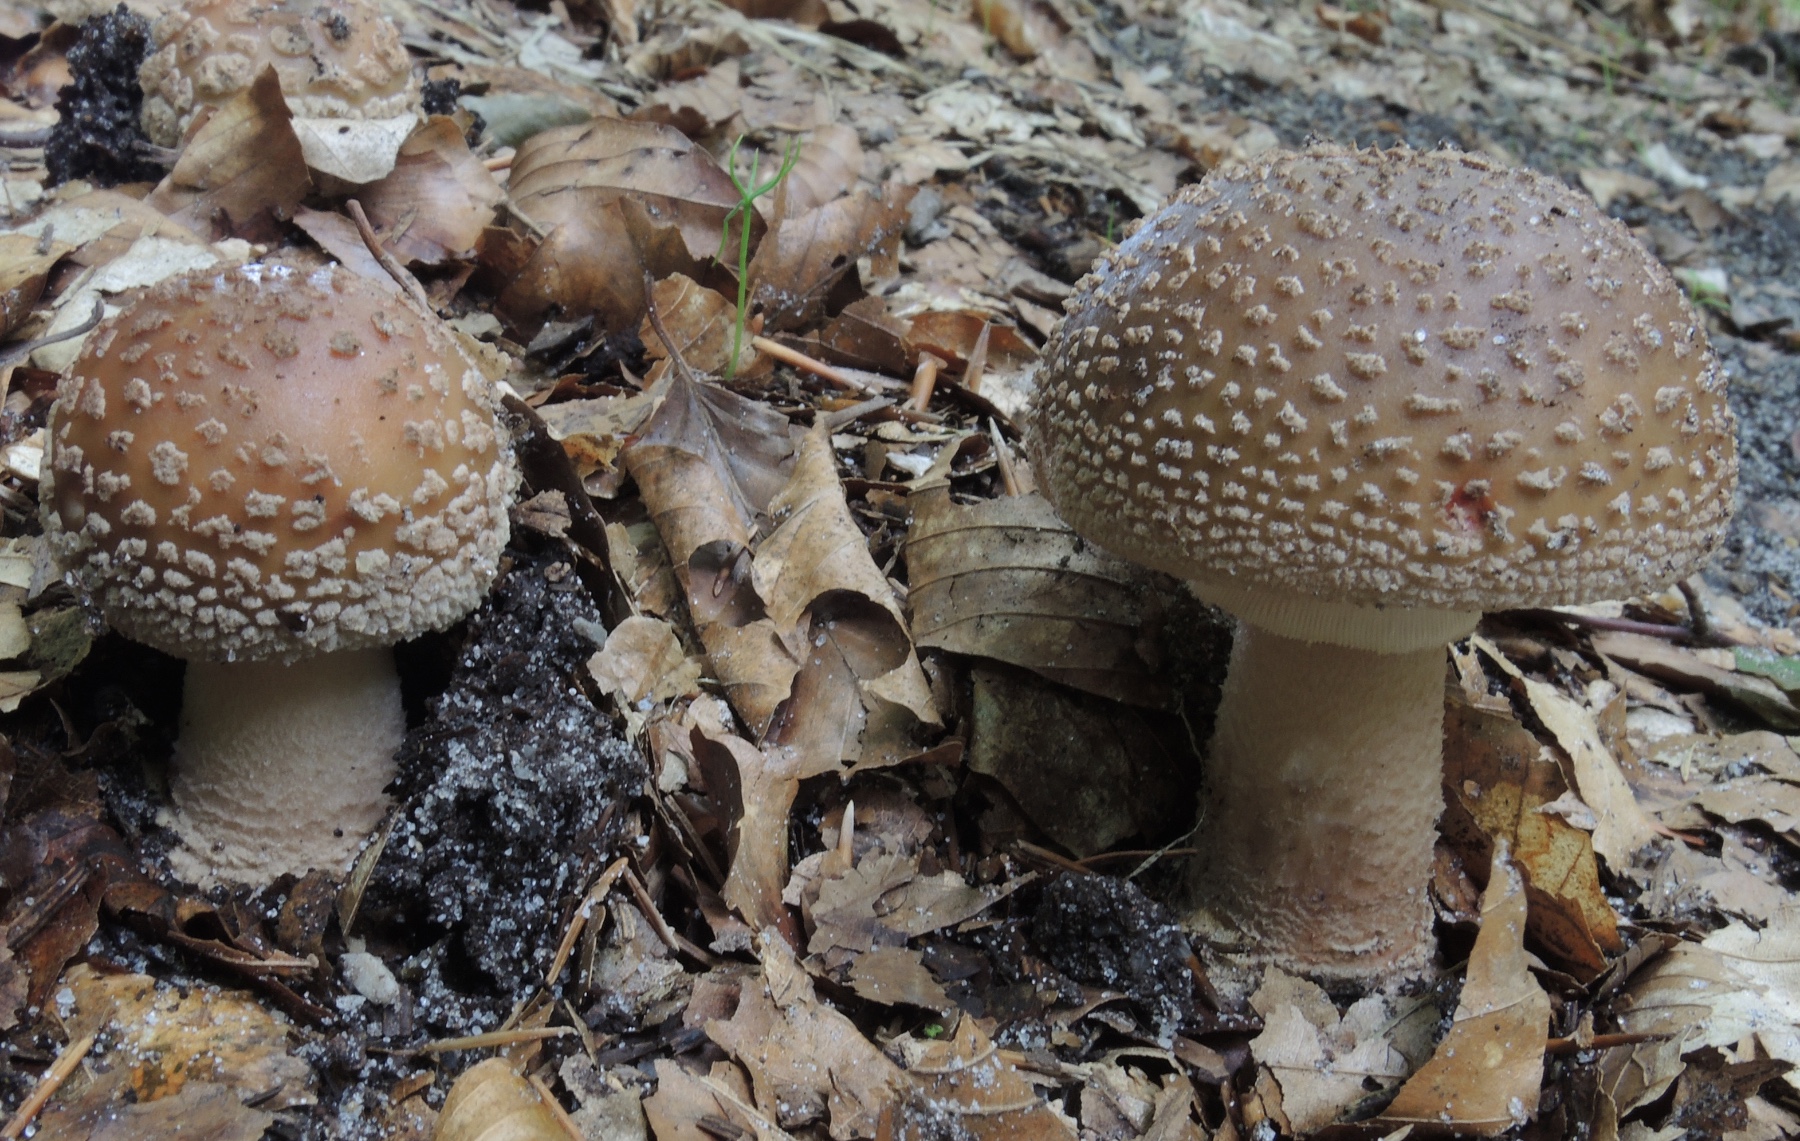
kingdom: Fungi
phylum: Basidiomycota
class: Agaricomycetes
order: Agaricales
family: Amanitaceae
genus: Amanita
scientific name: Amanita rubescens
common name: rødmende fluesvamp
